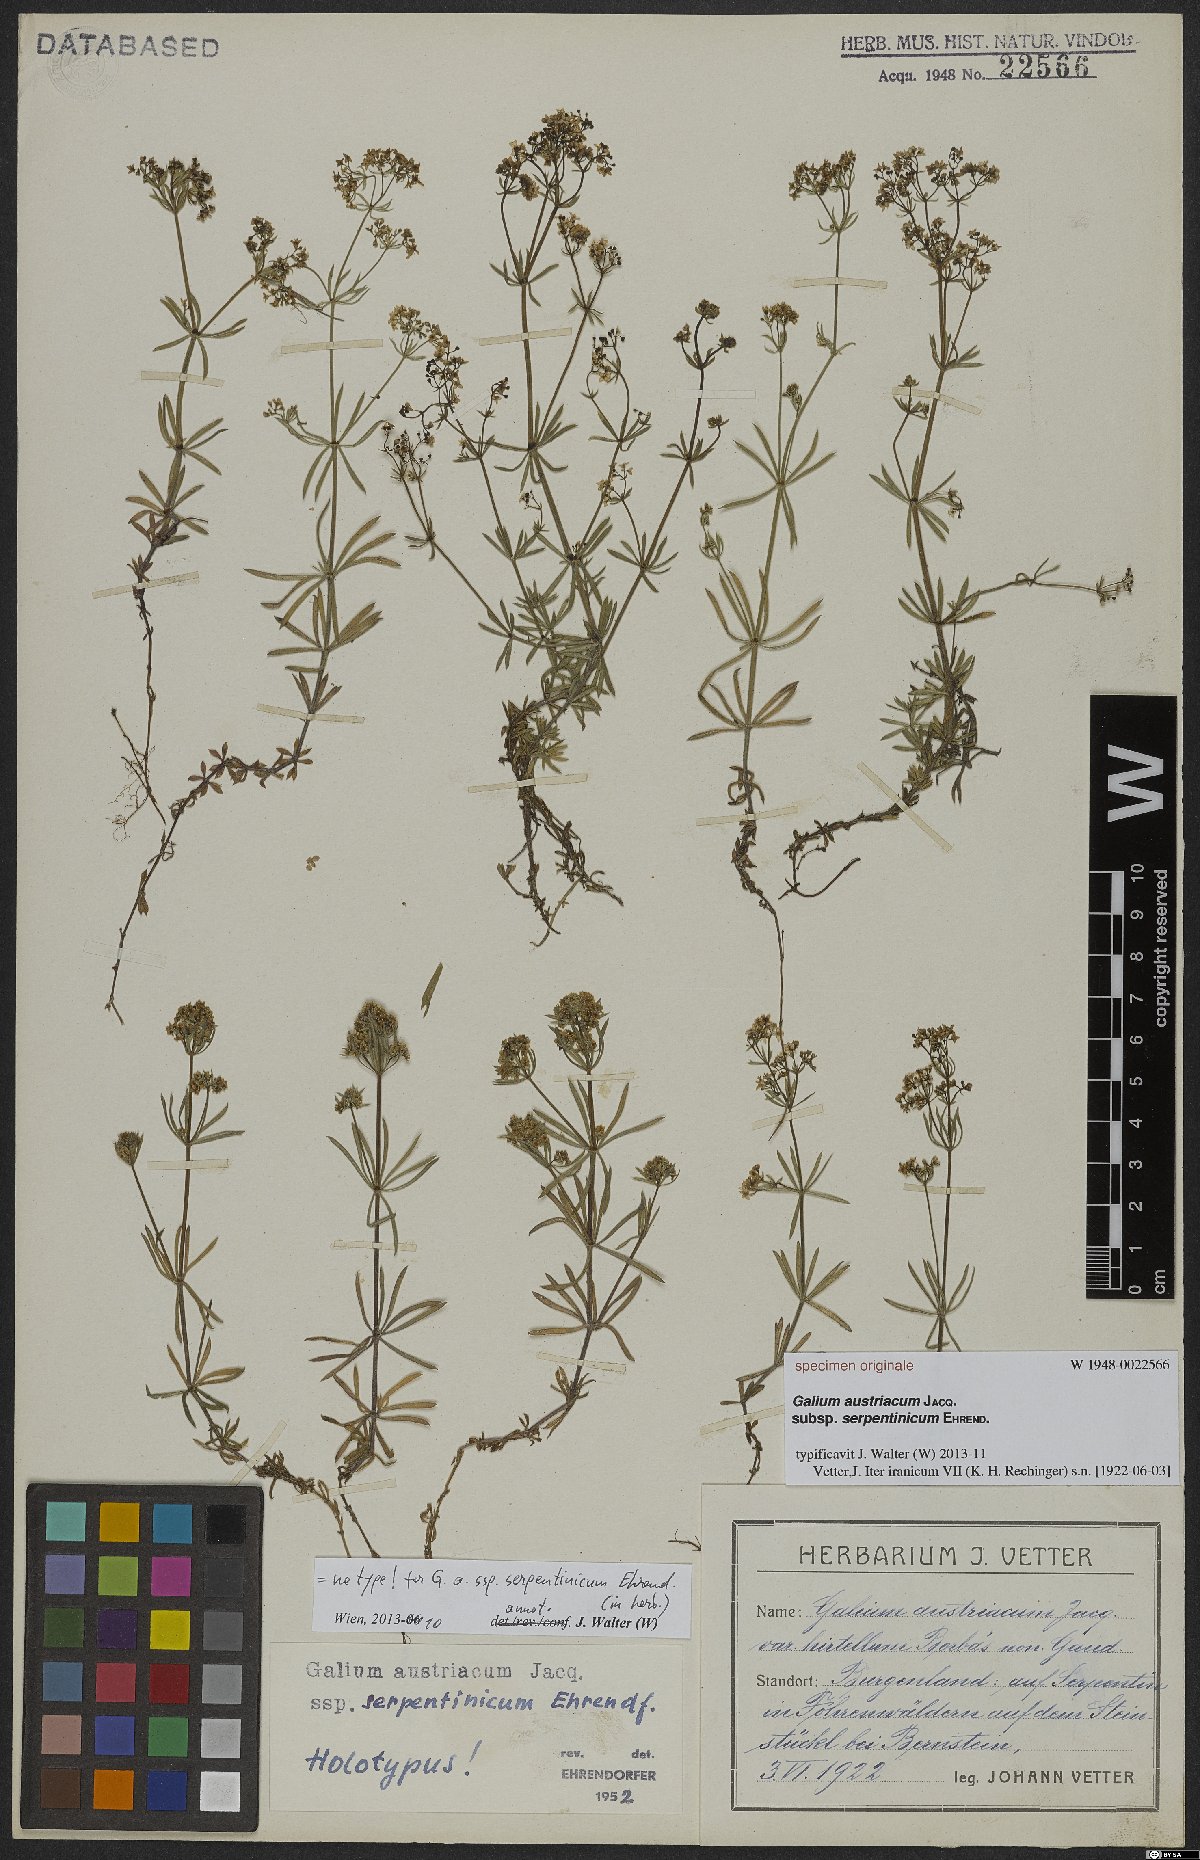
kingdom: Plantae
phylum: Tracheophyta
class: Magnoliopsida
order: Gentianales
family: Rubiaceae
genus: Galium
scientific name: Galium austriacum
